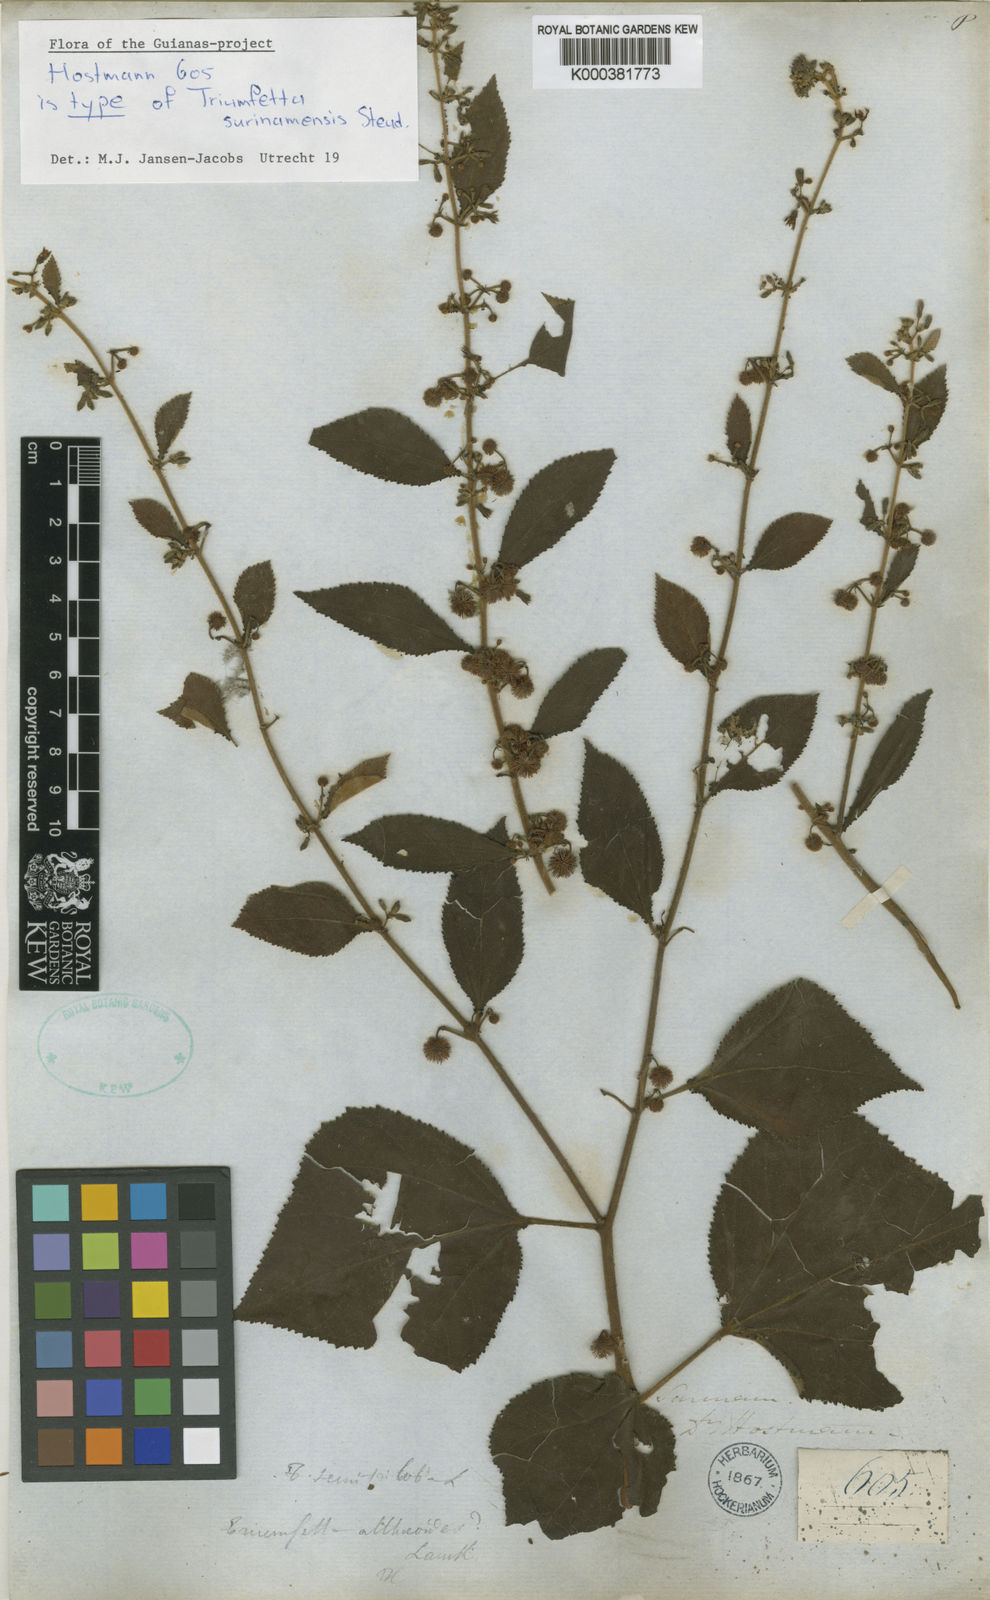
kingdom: Plantae
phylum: Tracheophyta
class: Magnoliopsida
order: Malvales
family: Malvaceae
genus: Triumfetta
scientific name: Triumfetta
